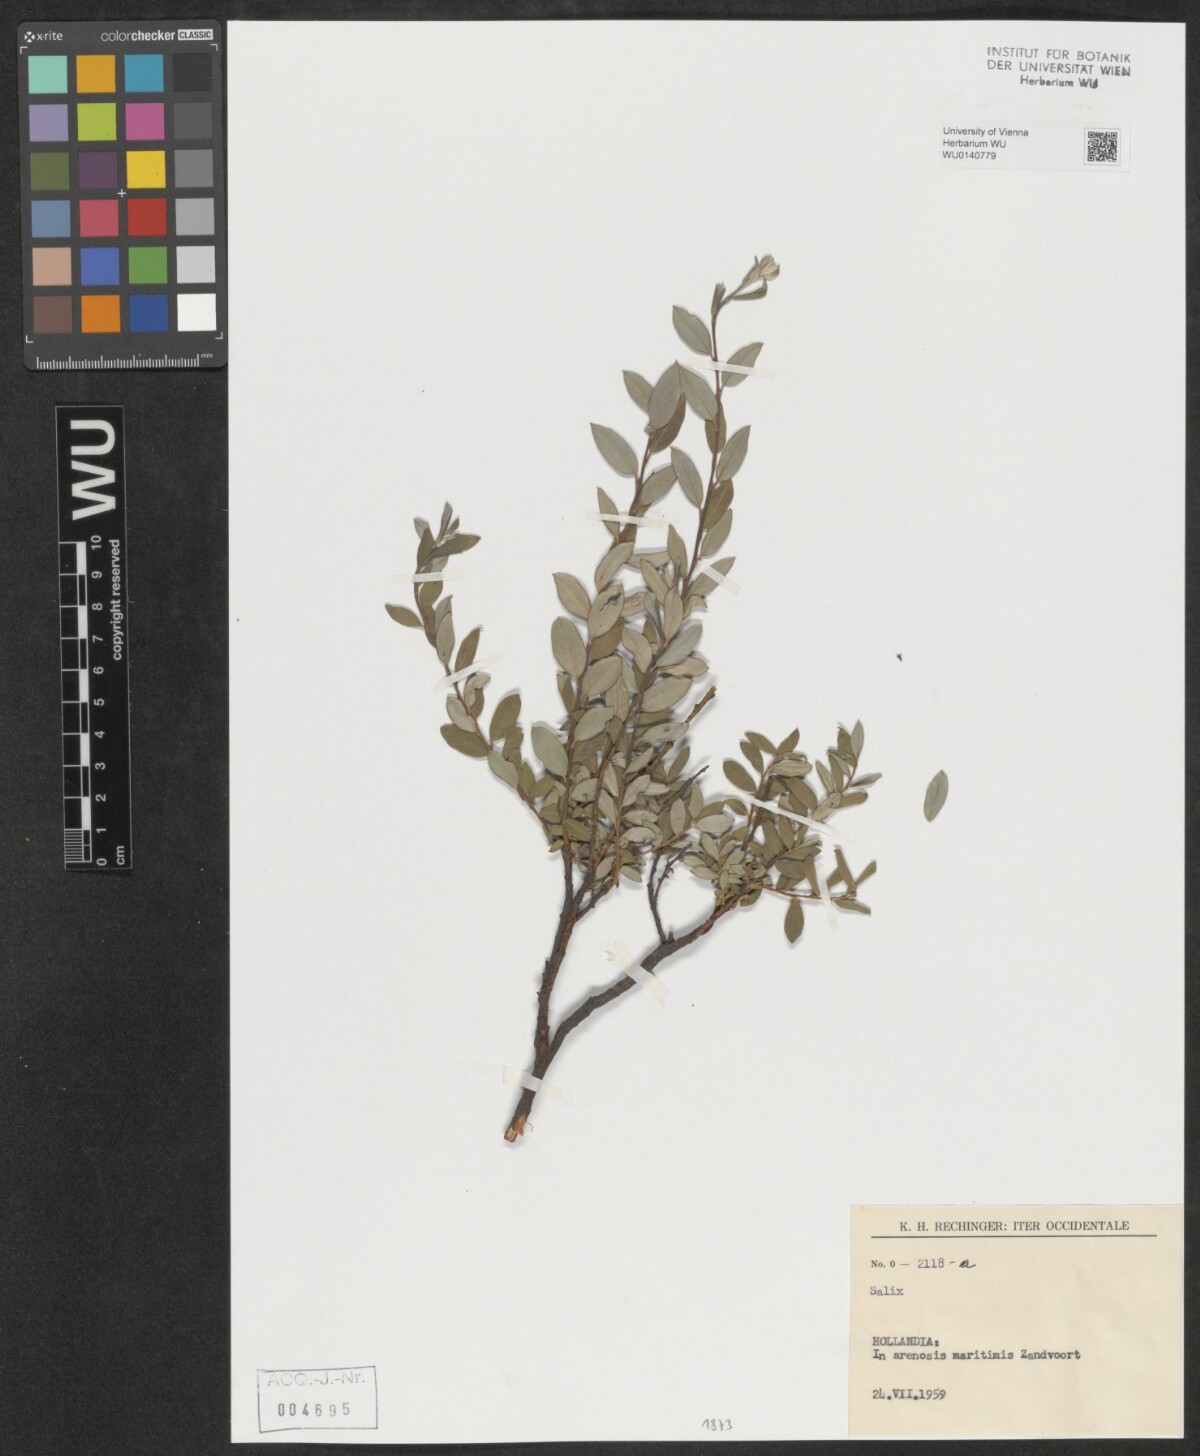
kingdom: Plantae
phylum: Tracheophyta
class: Magnoliopsida
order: Malpighiales
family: Salicaceae
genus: Salix
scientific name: Salix
